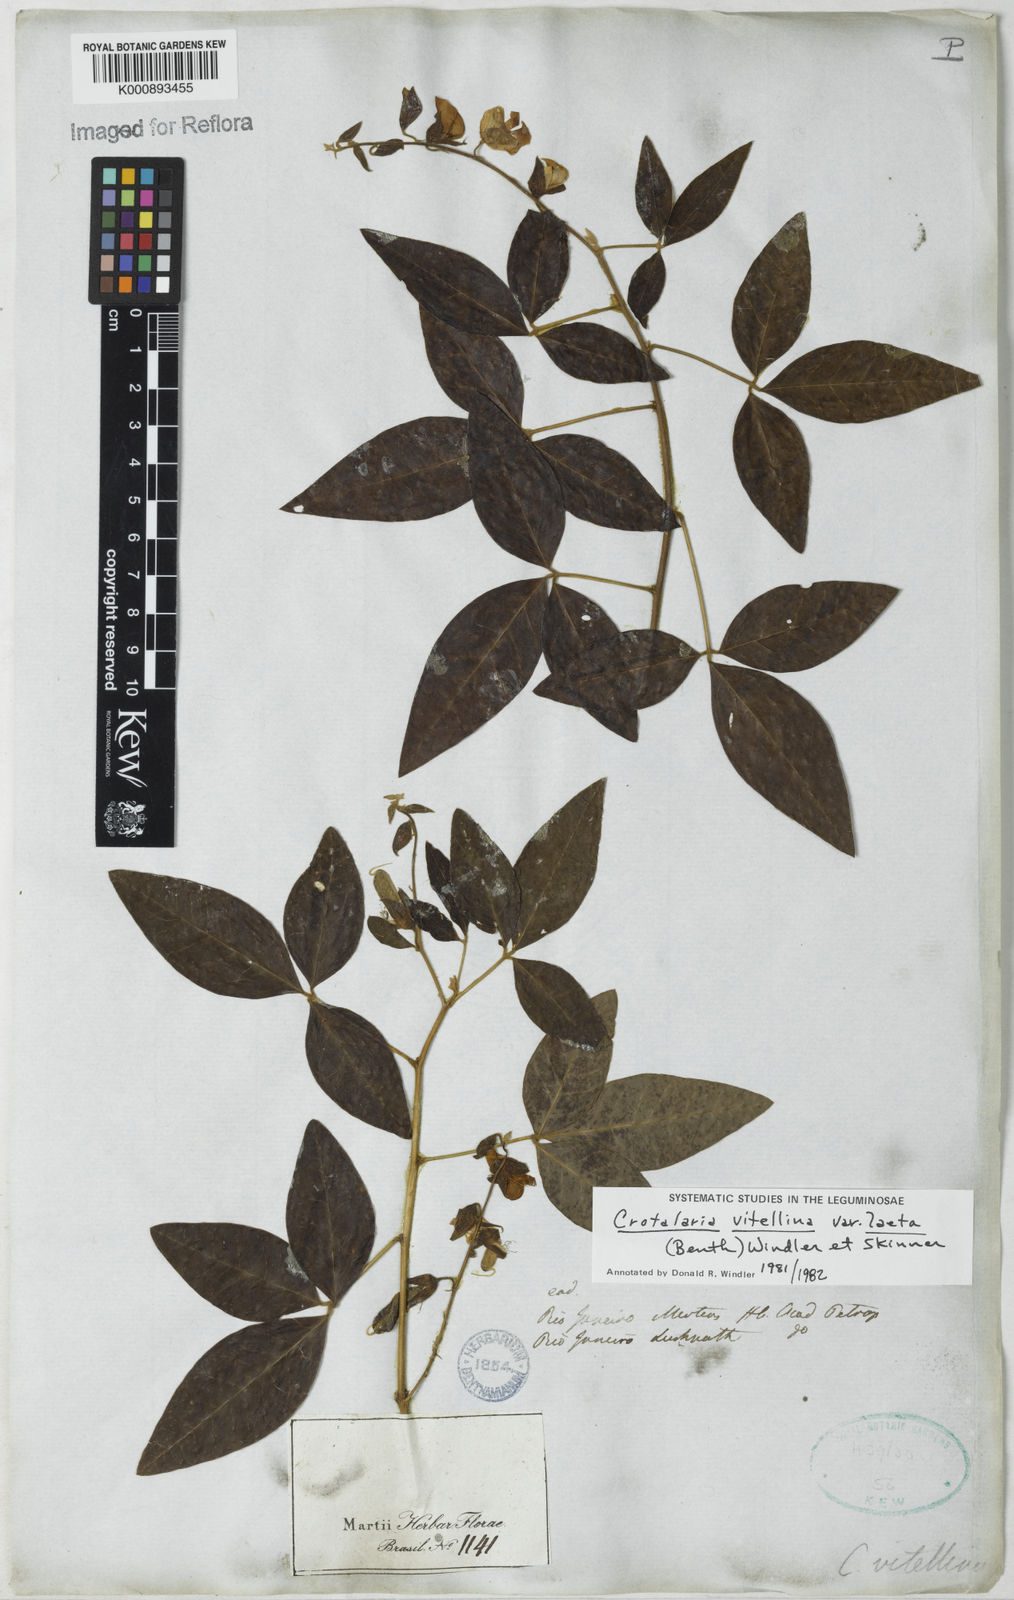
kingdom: Plantae
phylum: Tracheophyta
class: Magnoliopsida
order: Fabales
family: Fabaceae
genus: Crotalaria
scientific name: Crotalaria laeta
